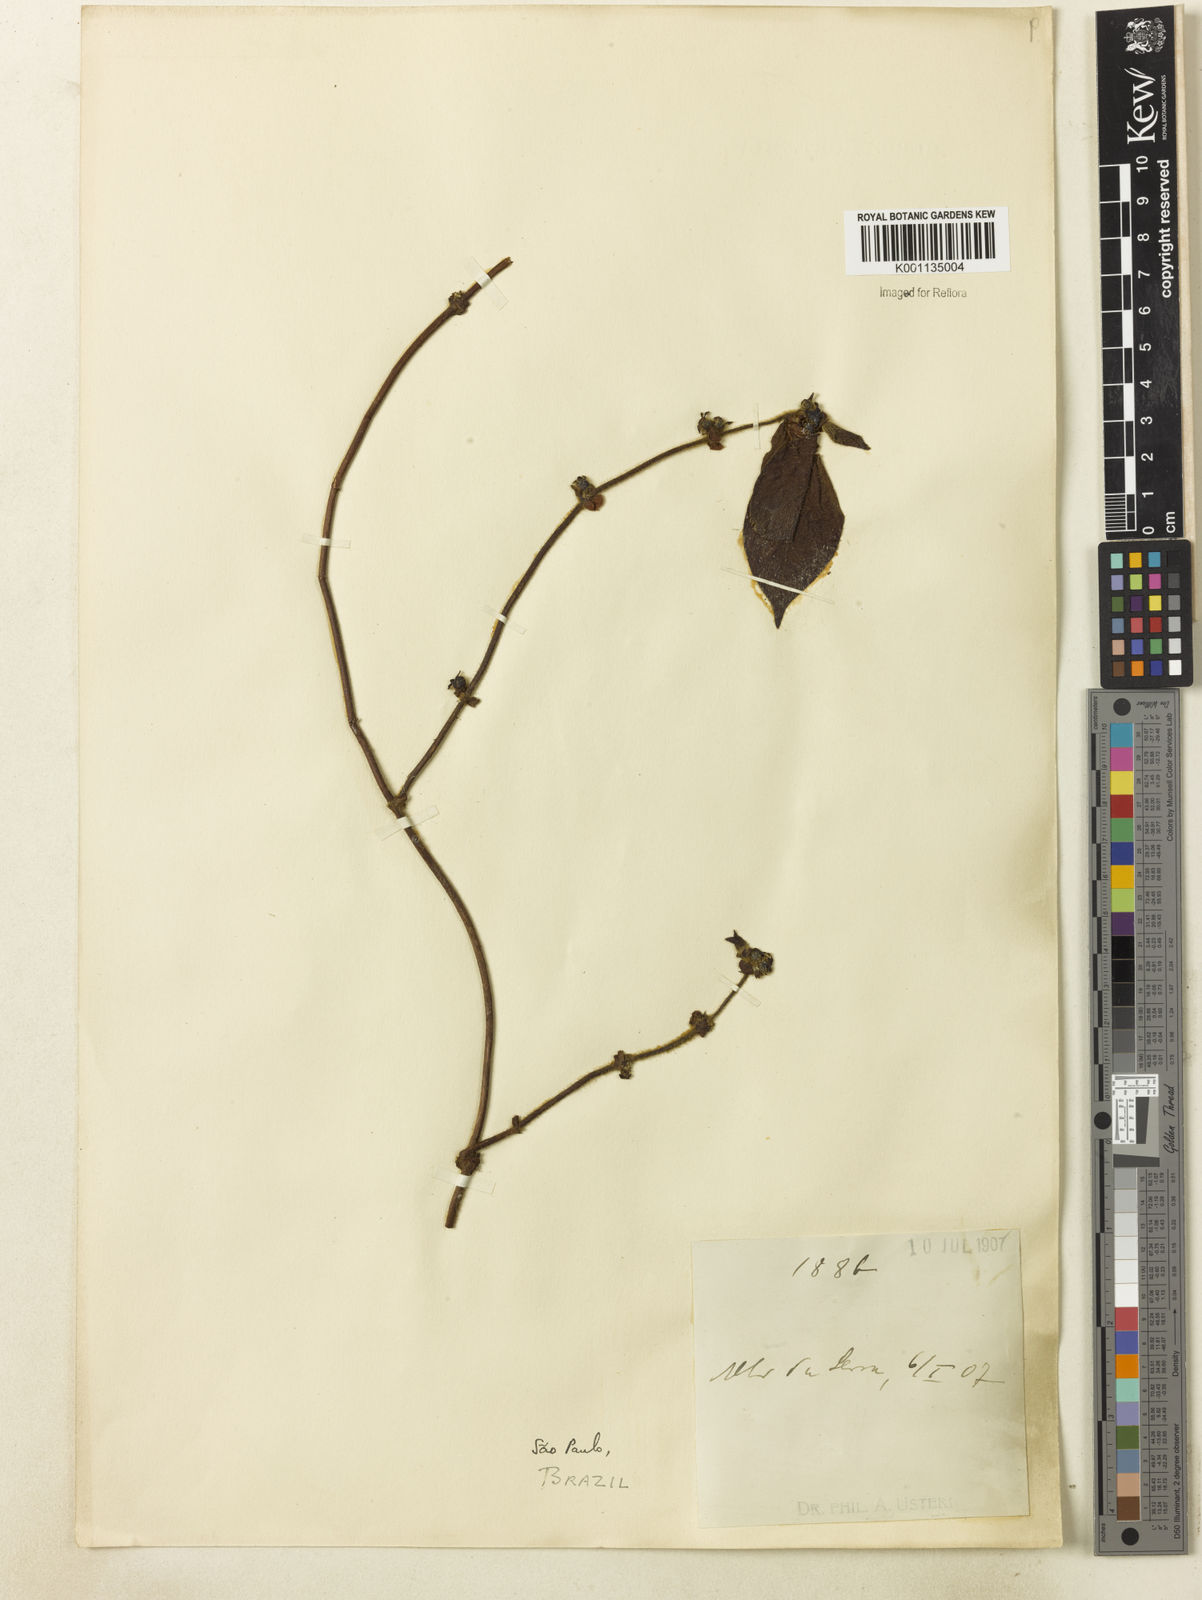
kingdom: Plantae
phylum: Tracheophyta
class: Magnoliopsida
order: Gentianales
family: Rubiaceae
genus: Sabicea
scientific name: Sabicea villosa
